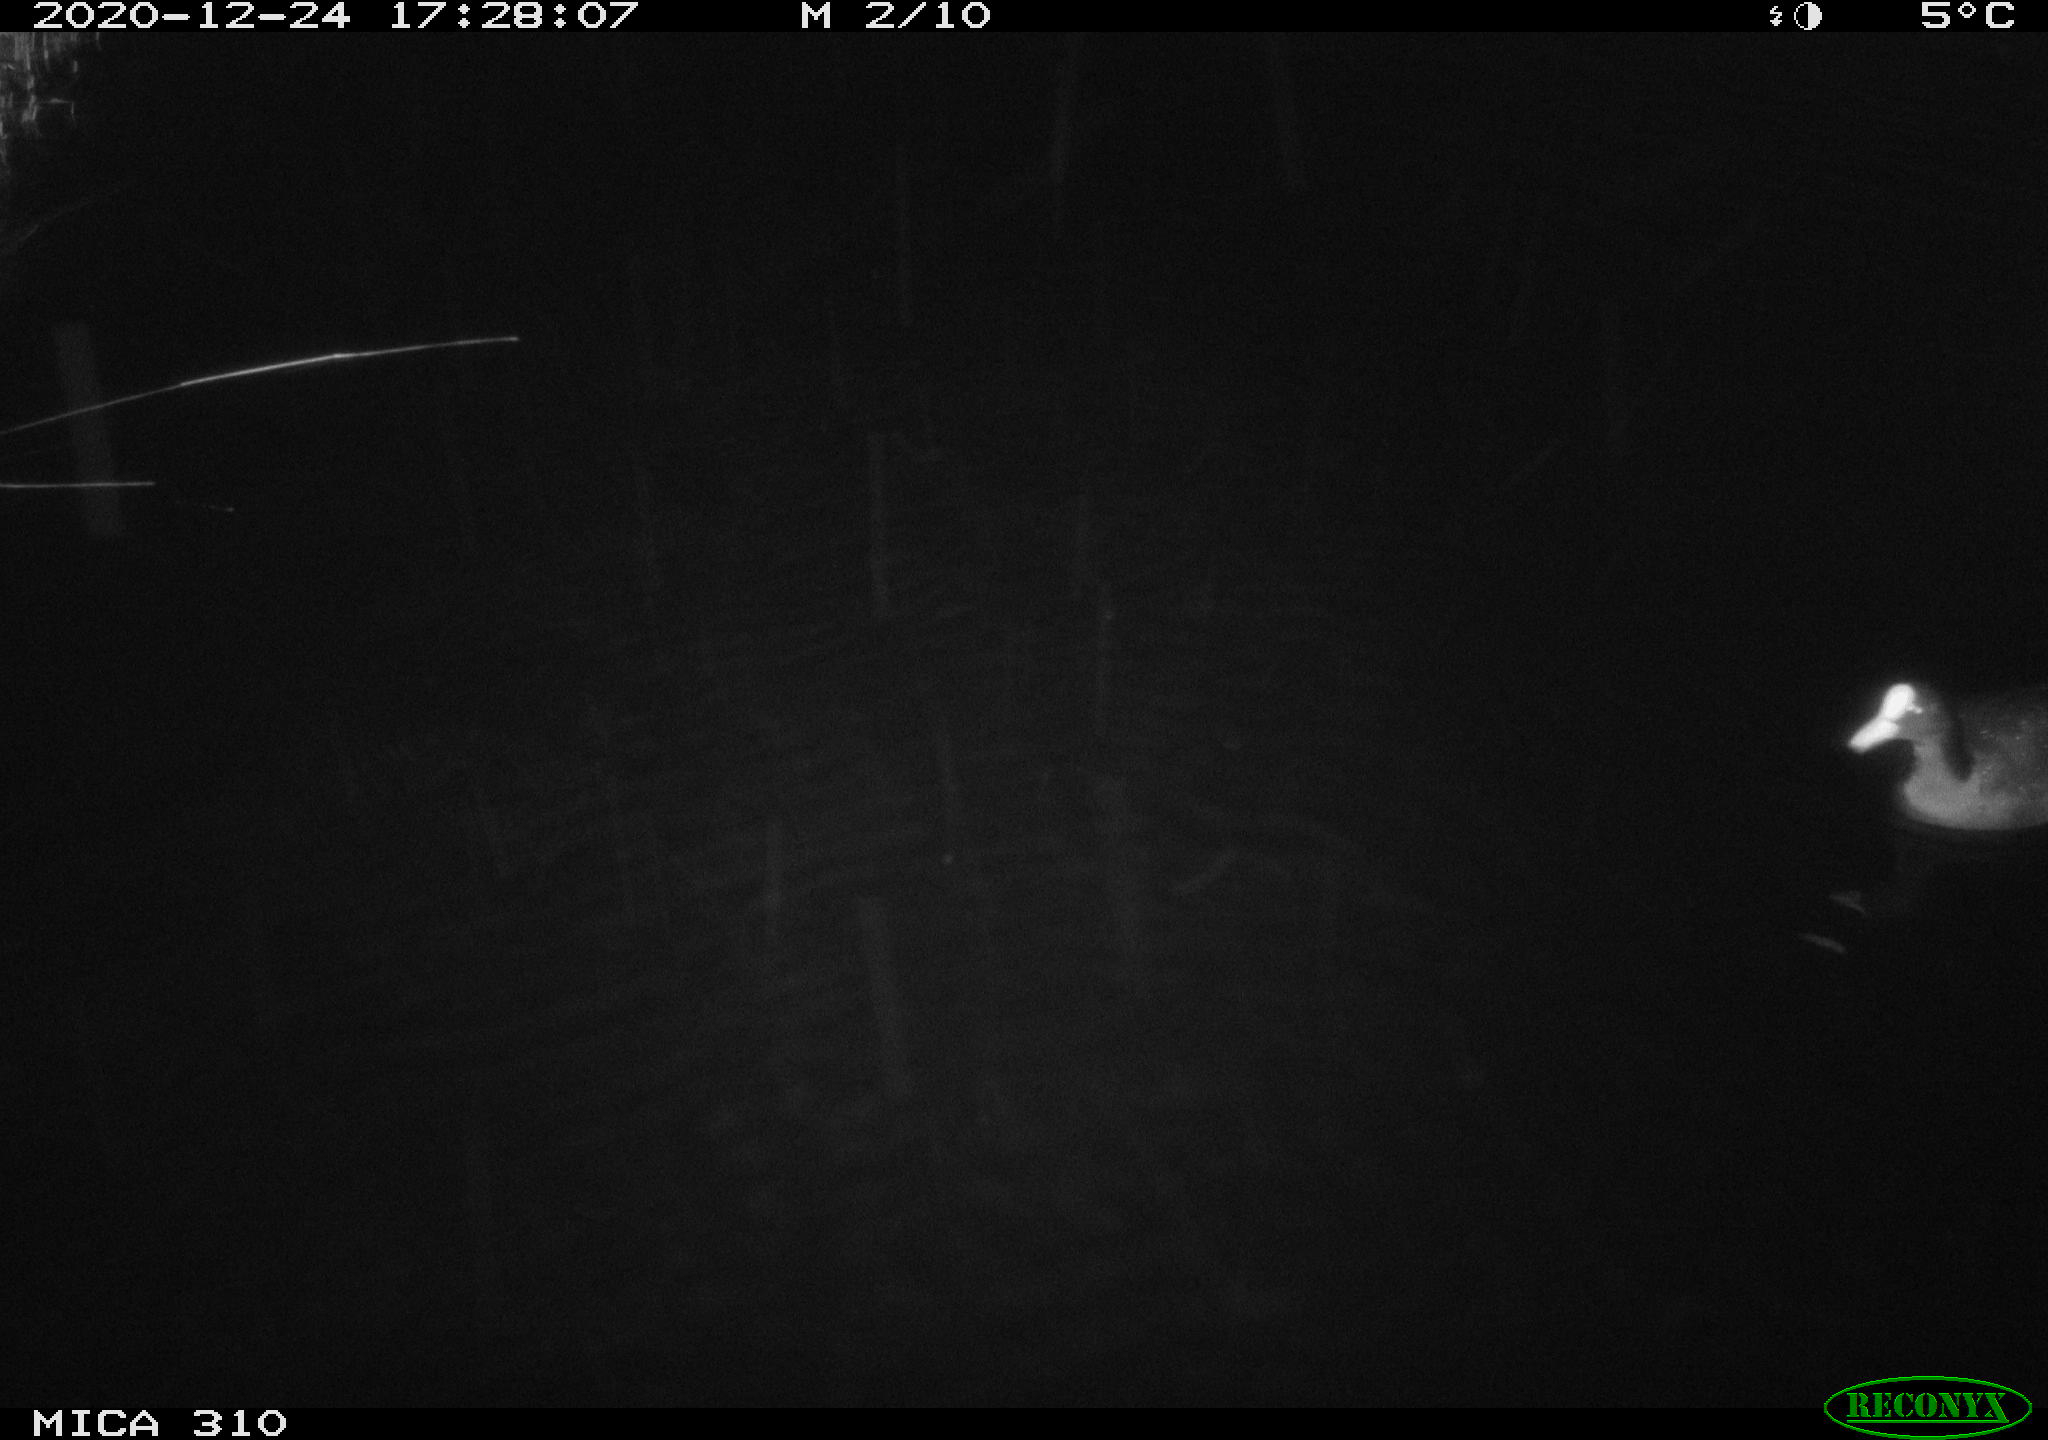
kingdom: Animalia
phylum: Chordata
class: Aves
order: Gruiformes
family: Rallidae
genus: Fulica
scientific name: Fulica atra
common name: Eurasian coot
